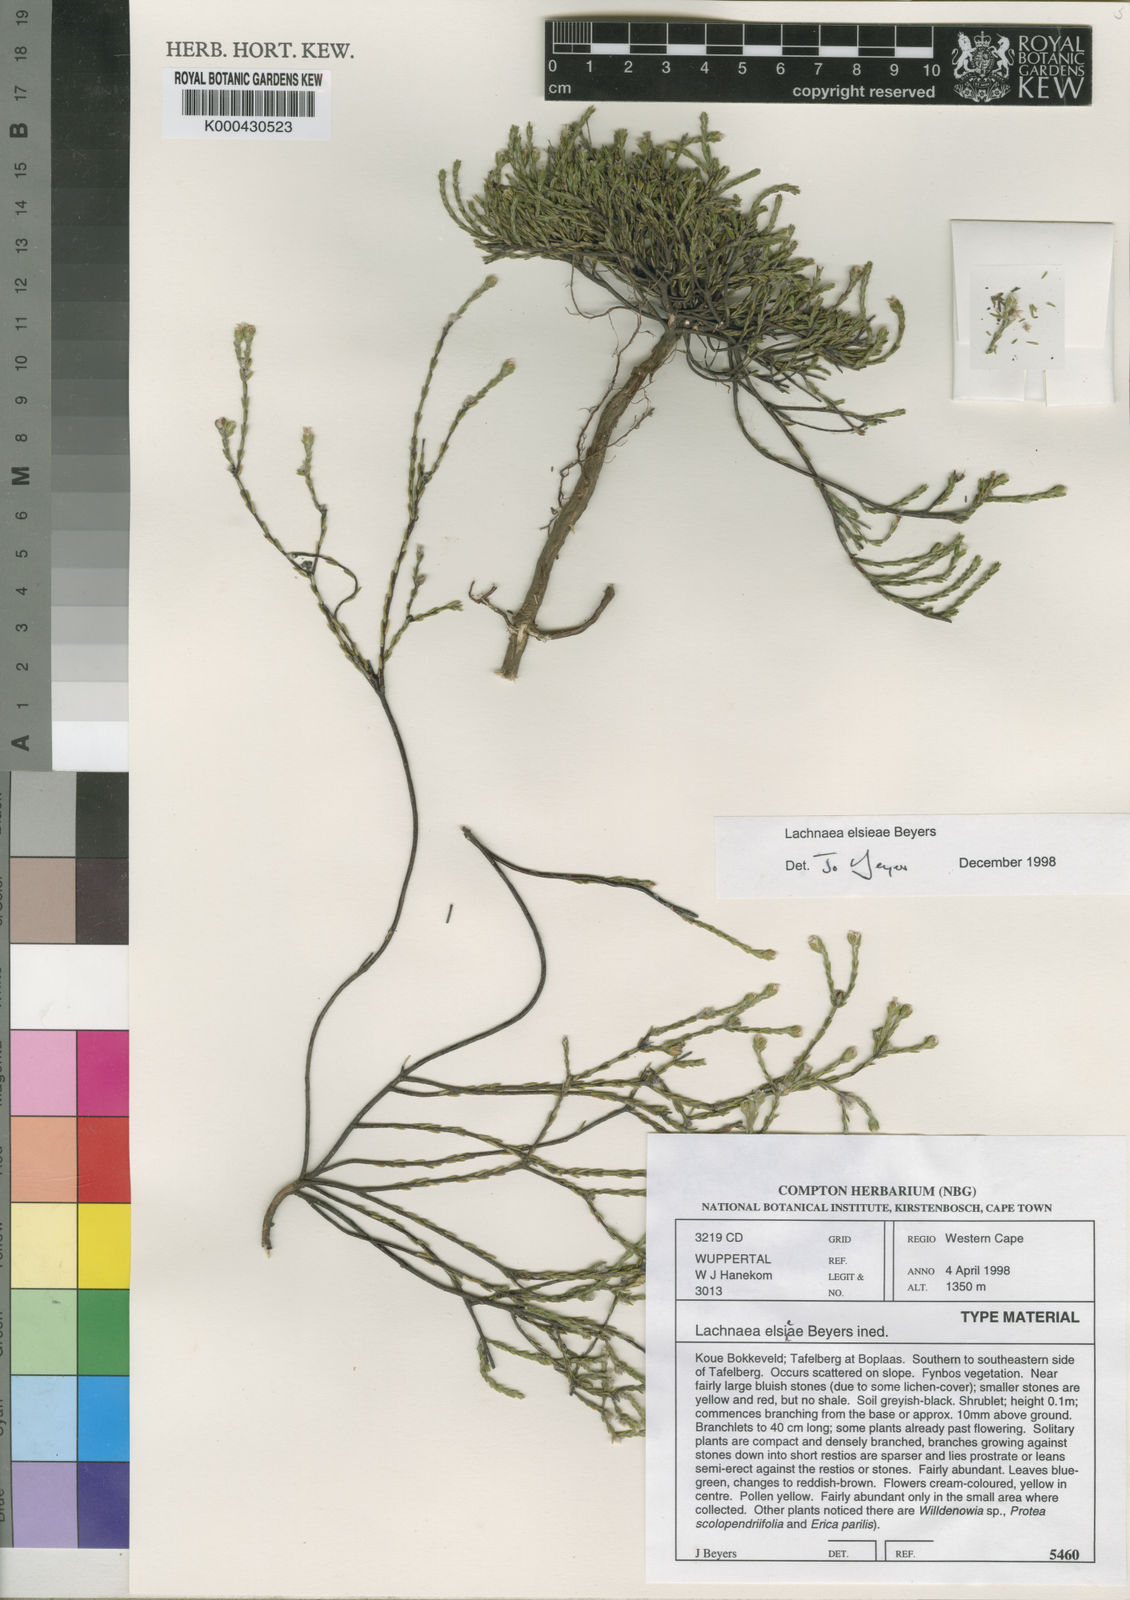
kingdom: Plantae
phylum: Tracheophyta
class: Magnoliopsida
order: Malvales
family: Thymelaeaceae
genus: Lachnaea
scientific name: Lachnaea elsieae
